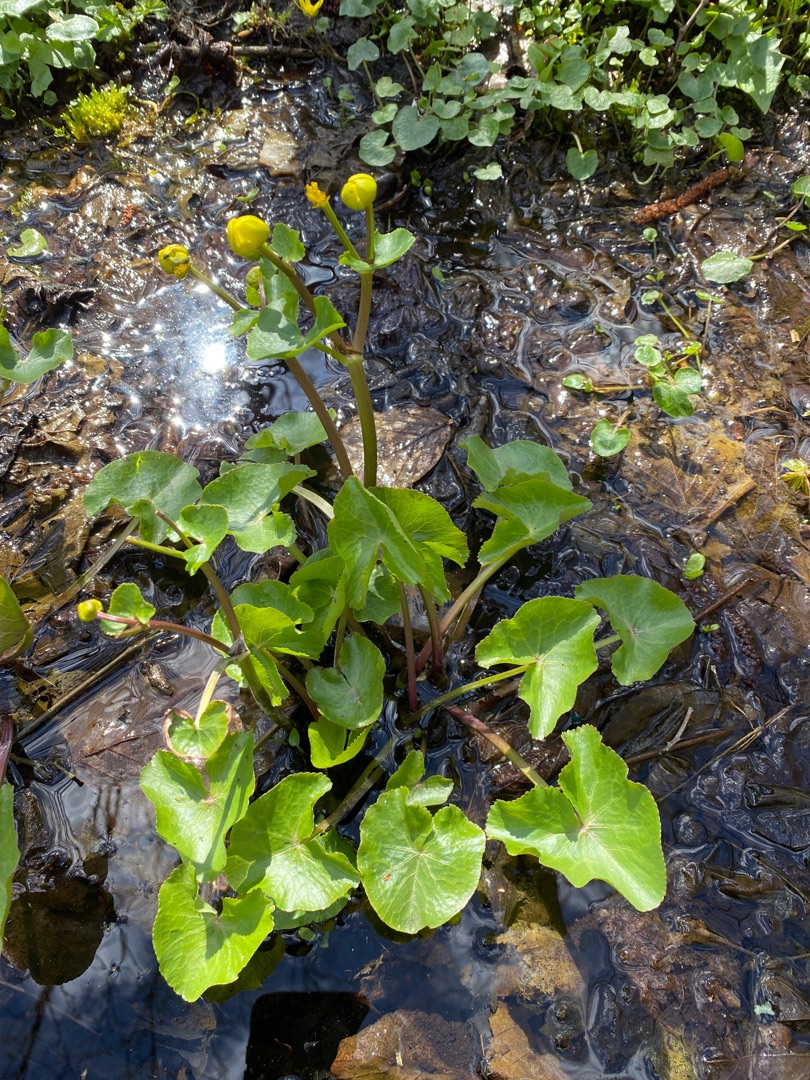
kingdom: Plantae
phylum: Tracheophyta
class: Magnoliopsida
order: Ranunculales
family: Ranunculaceae
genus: Caltha
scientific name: Caltha palustris
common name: Eng-kabbeleje
